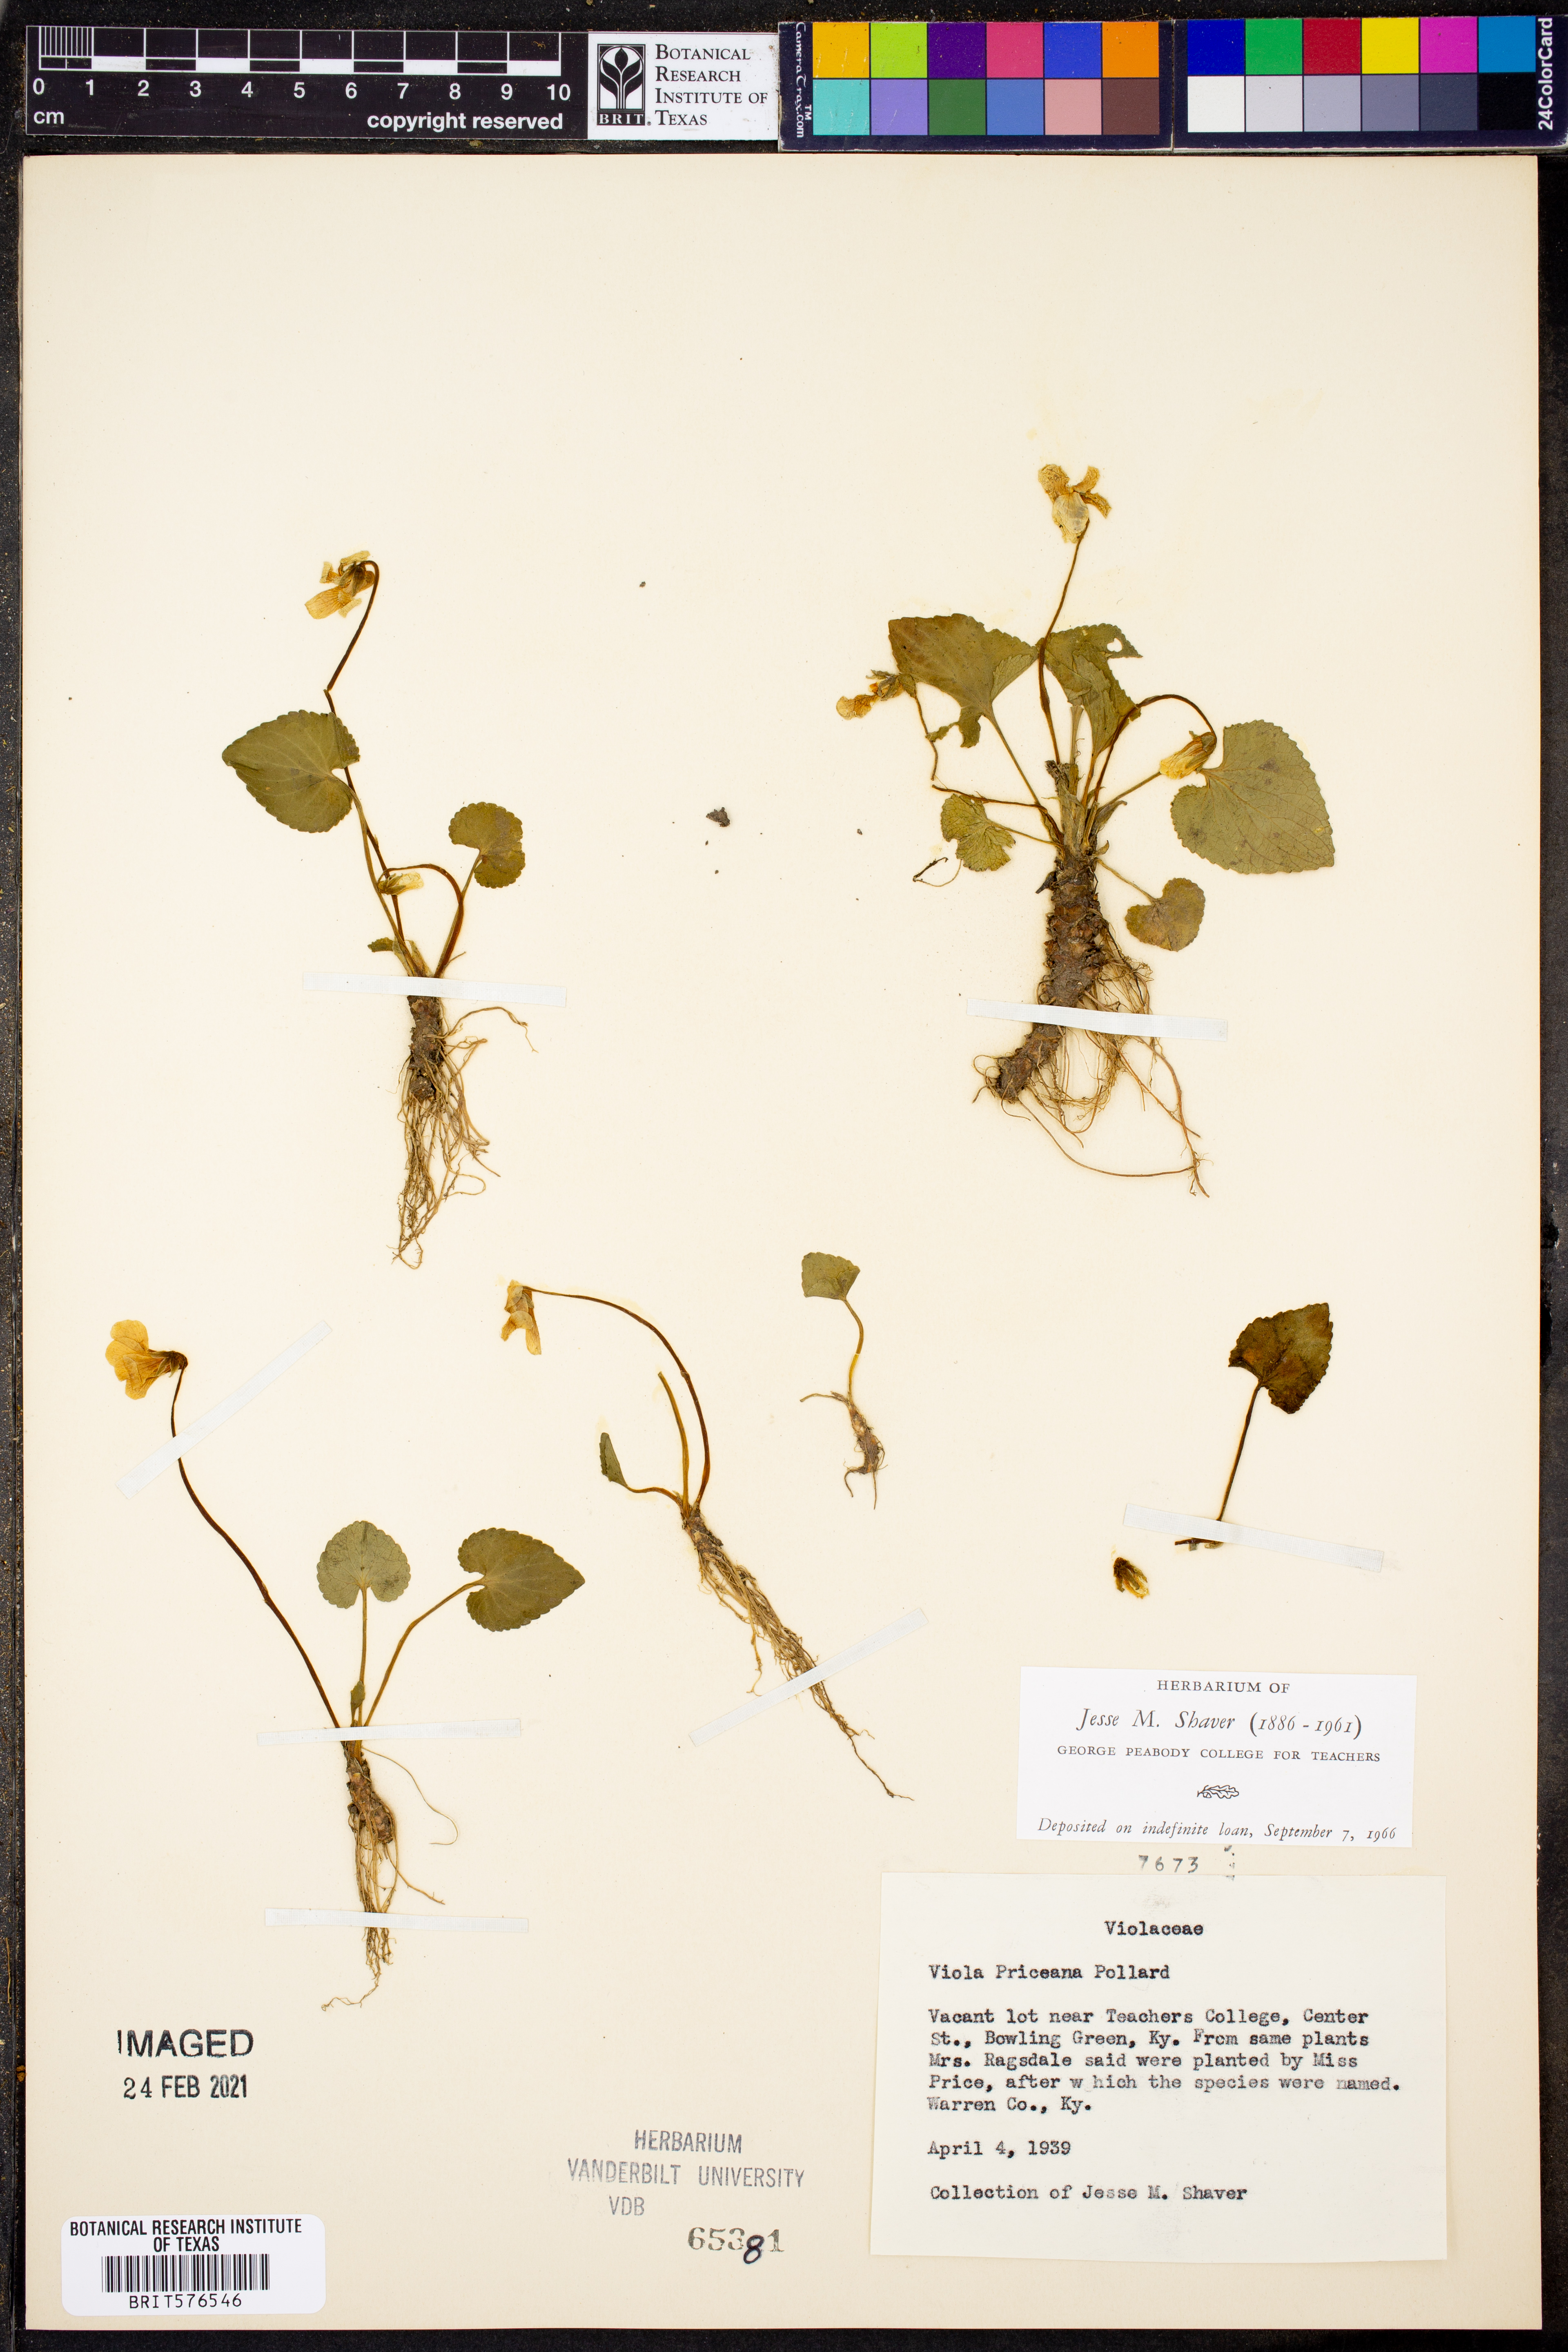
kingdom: Plantae
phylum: Tracheophyta
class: Magnoliopsida
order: Malpighiales
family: Violaceae
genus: Viola
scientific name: Viola communis
